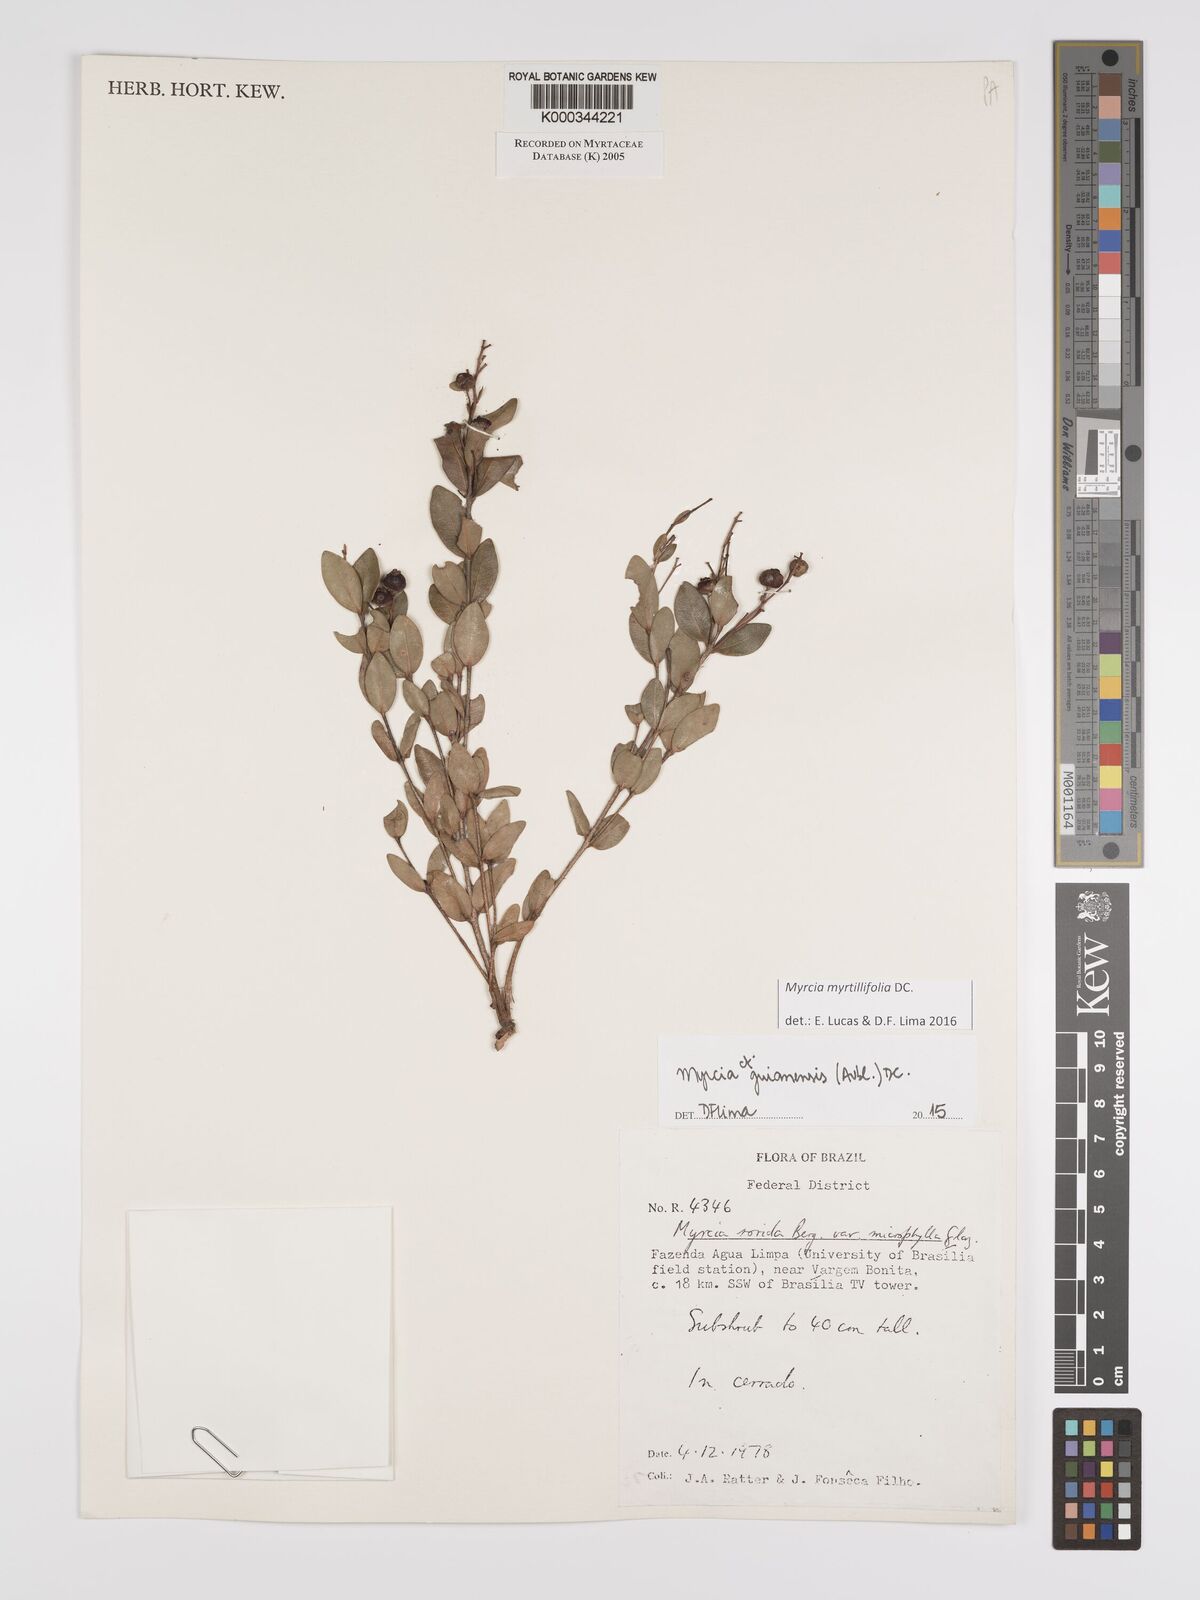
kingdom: Plantae
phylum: Tracheophyta
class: Magnoliopsida
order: Myrtales
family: Myrtaceae
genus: Myrcia
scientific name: Myrcia guianensis
